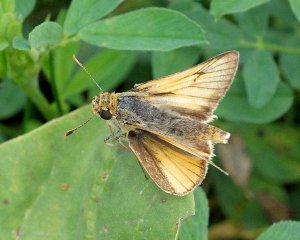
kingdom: Animalia
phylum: Arthropoda
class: Insecta
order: Lepidoptera
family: Hesperiidae
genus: Atrytone
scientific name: Atrytone delaware
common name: Delaware Skipper
